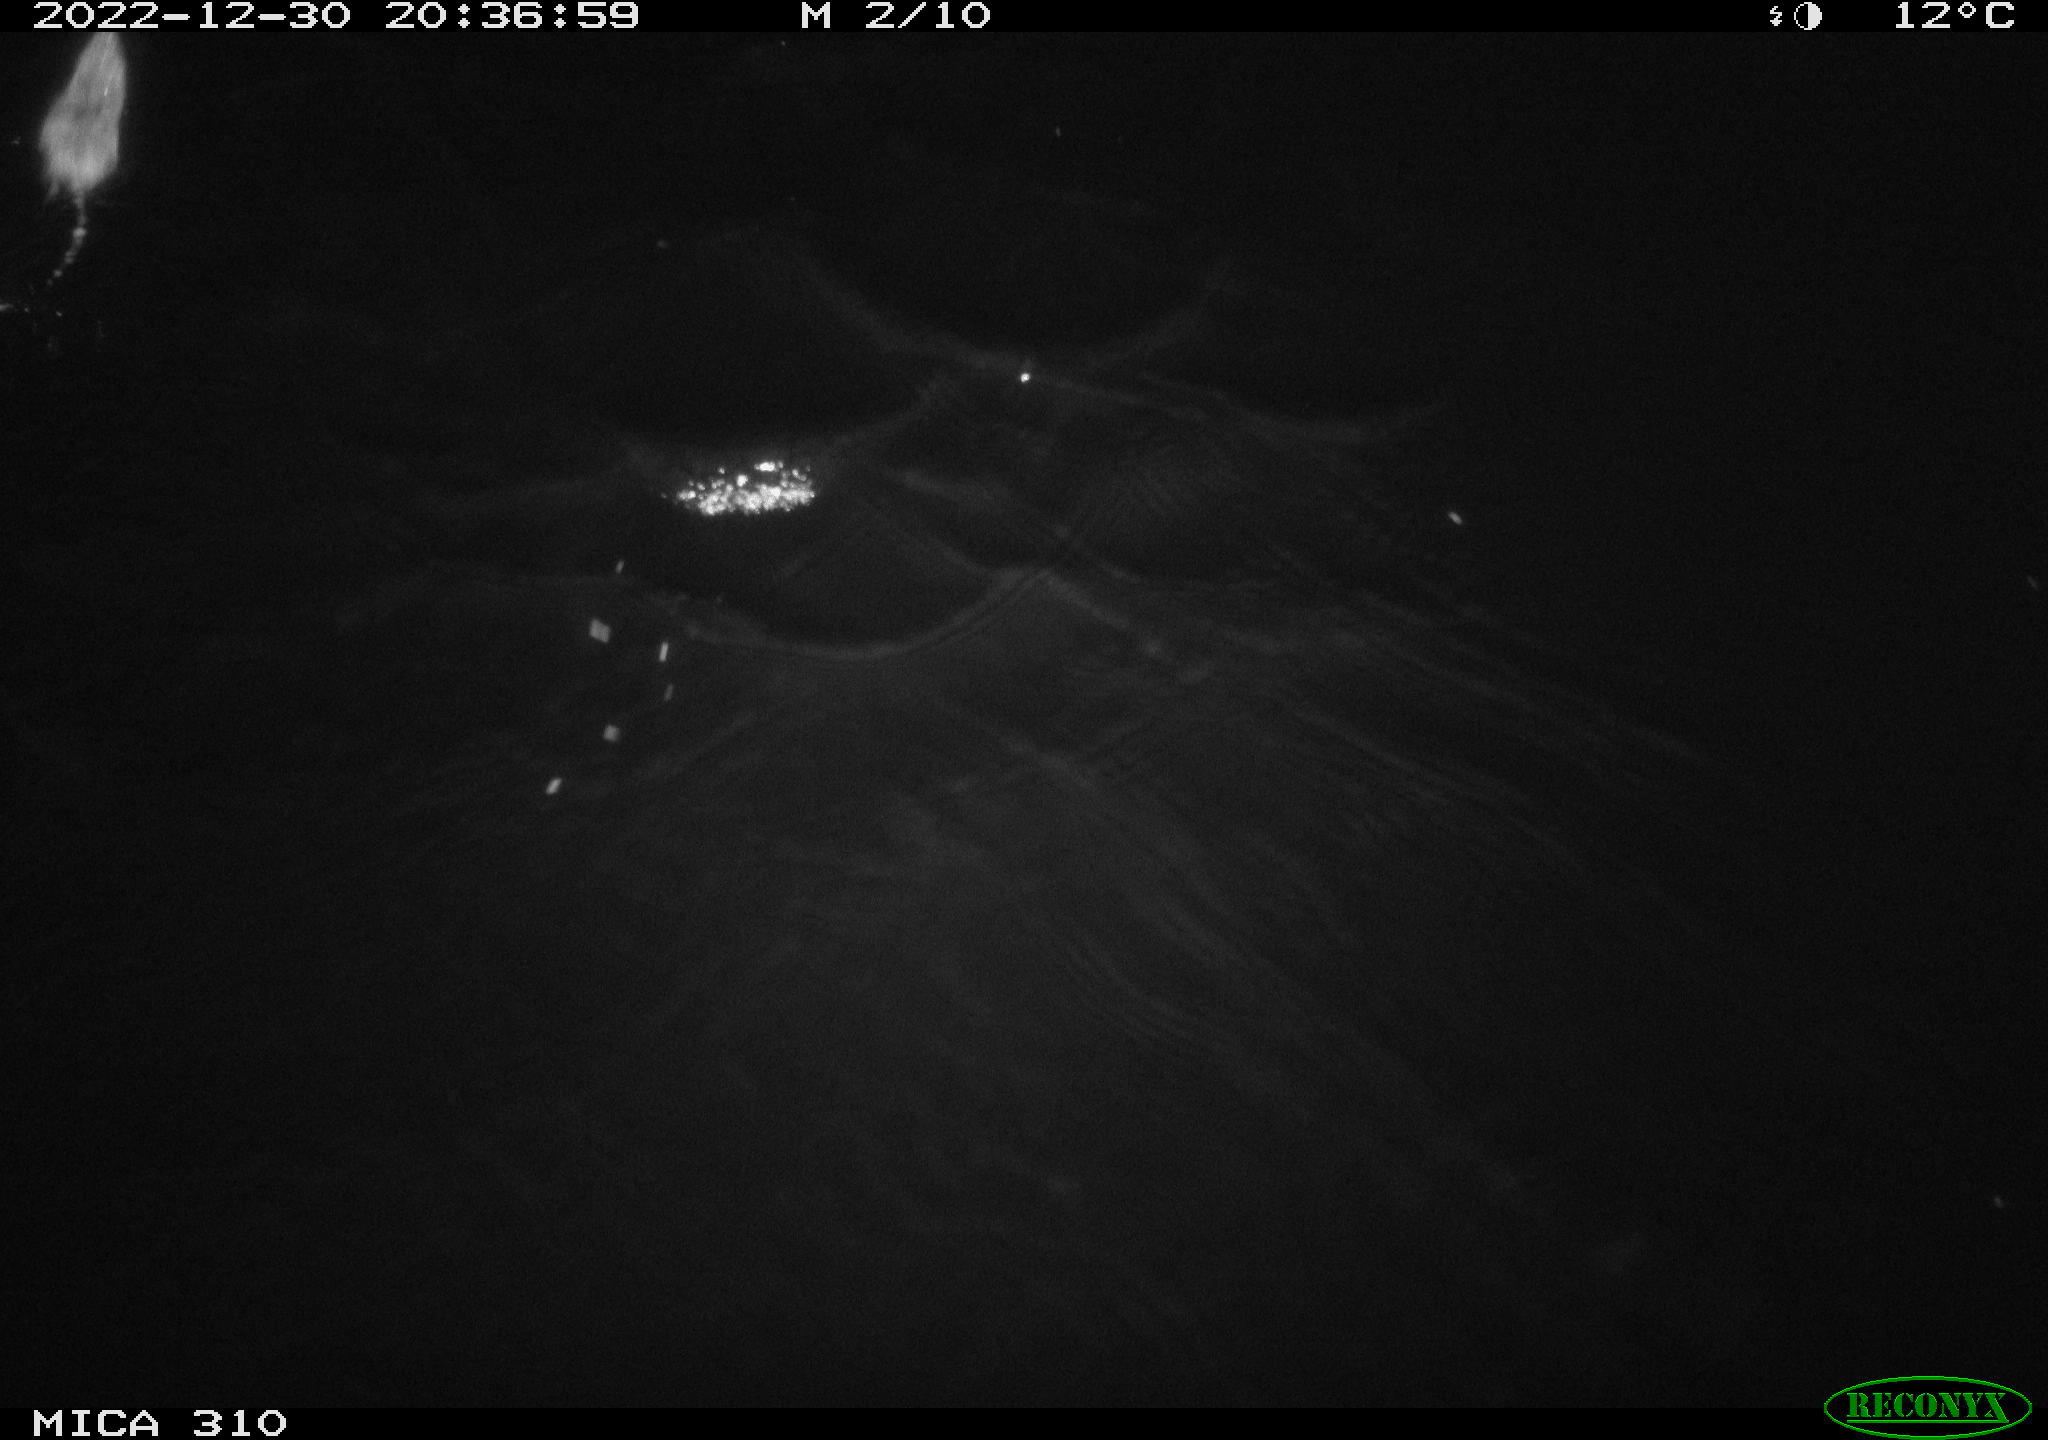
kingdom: Animalia
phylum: Chordata
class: Mammalia
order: Rodentia
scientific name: Rodentia
